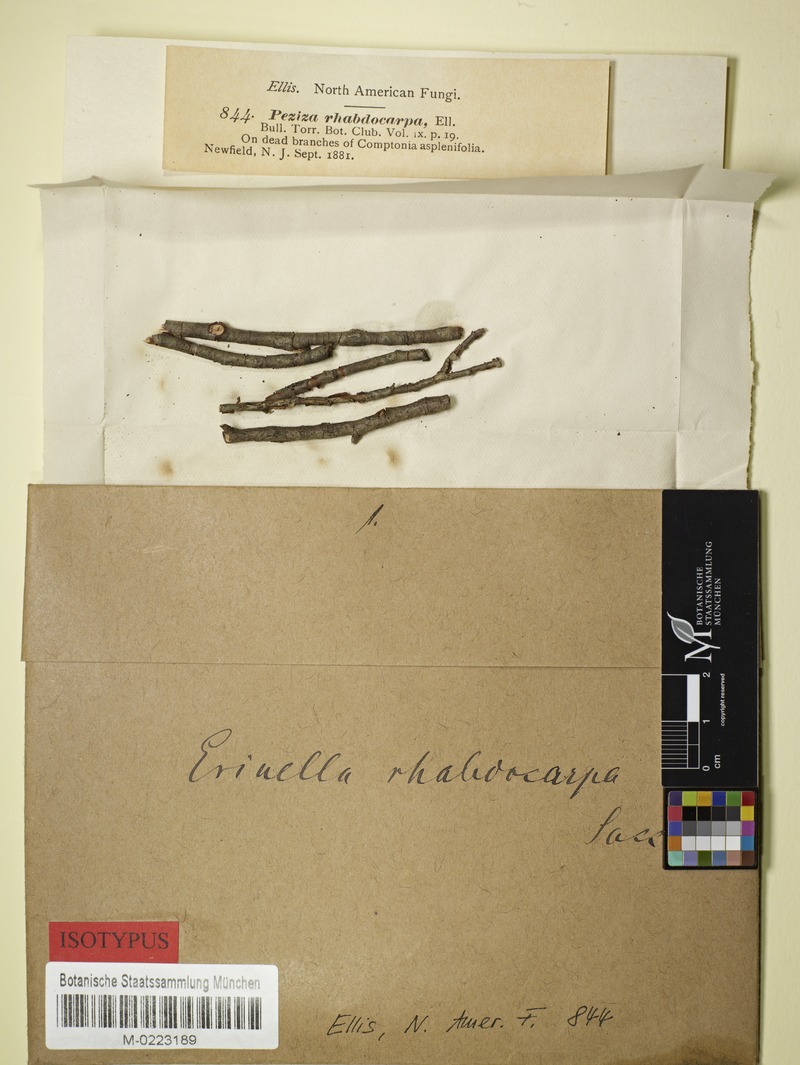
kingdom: Fungi
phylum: Ascomycota
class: Leotiomycetes
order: Helotiales
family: Mollisiaceae
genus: Trichobelonium
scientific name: Trichobelonium rhabdocarpum
